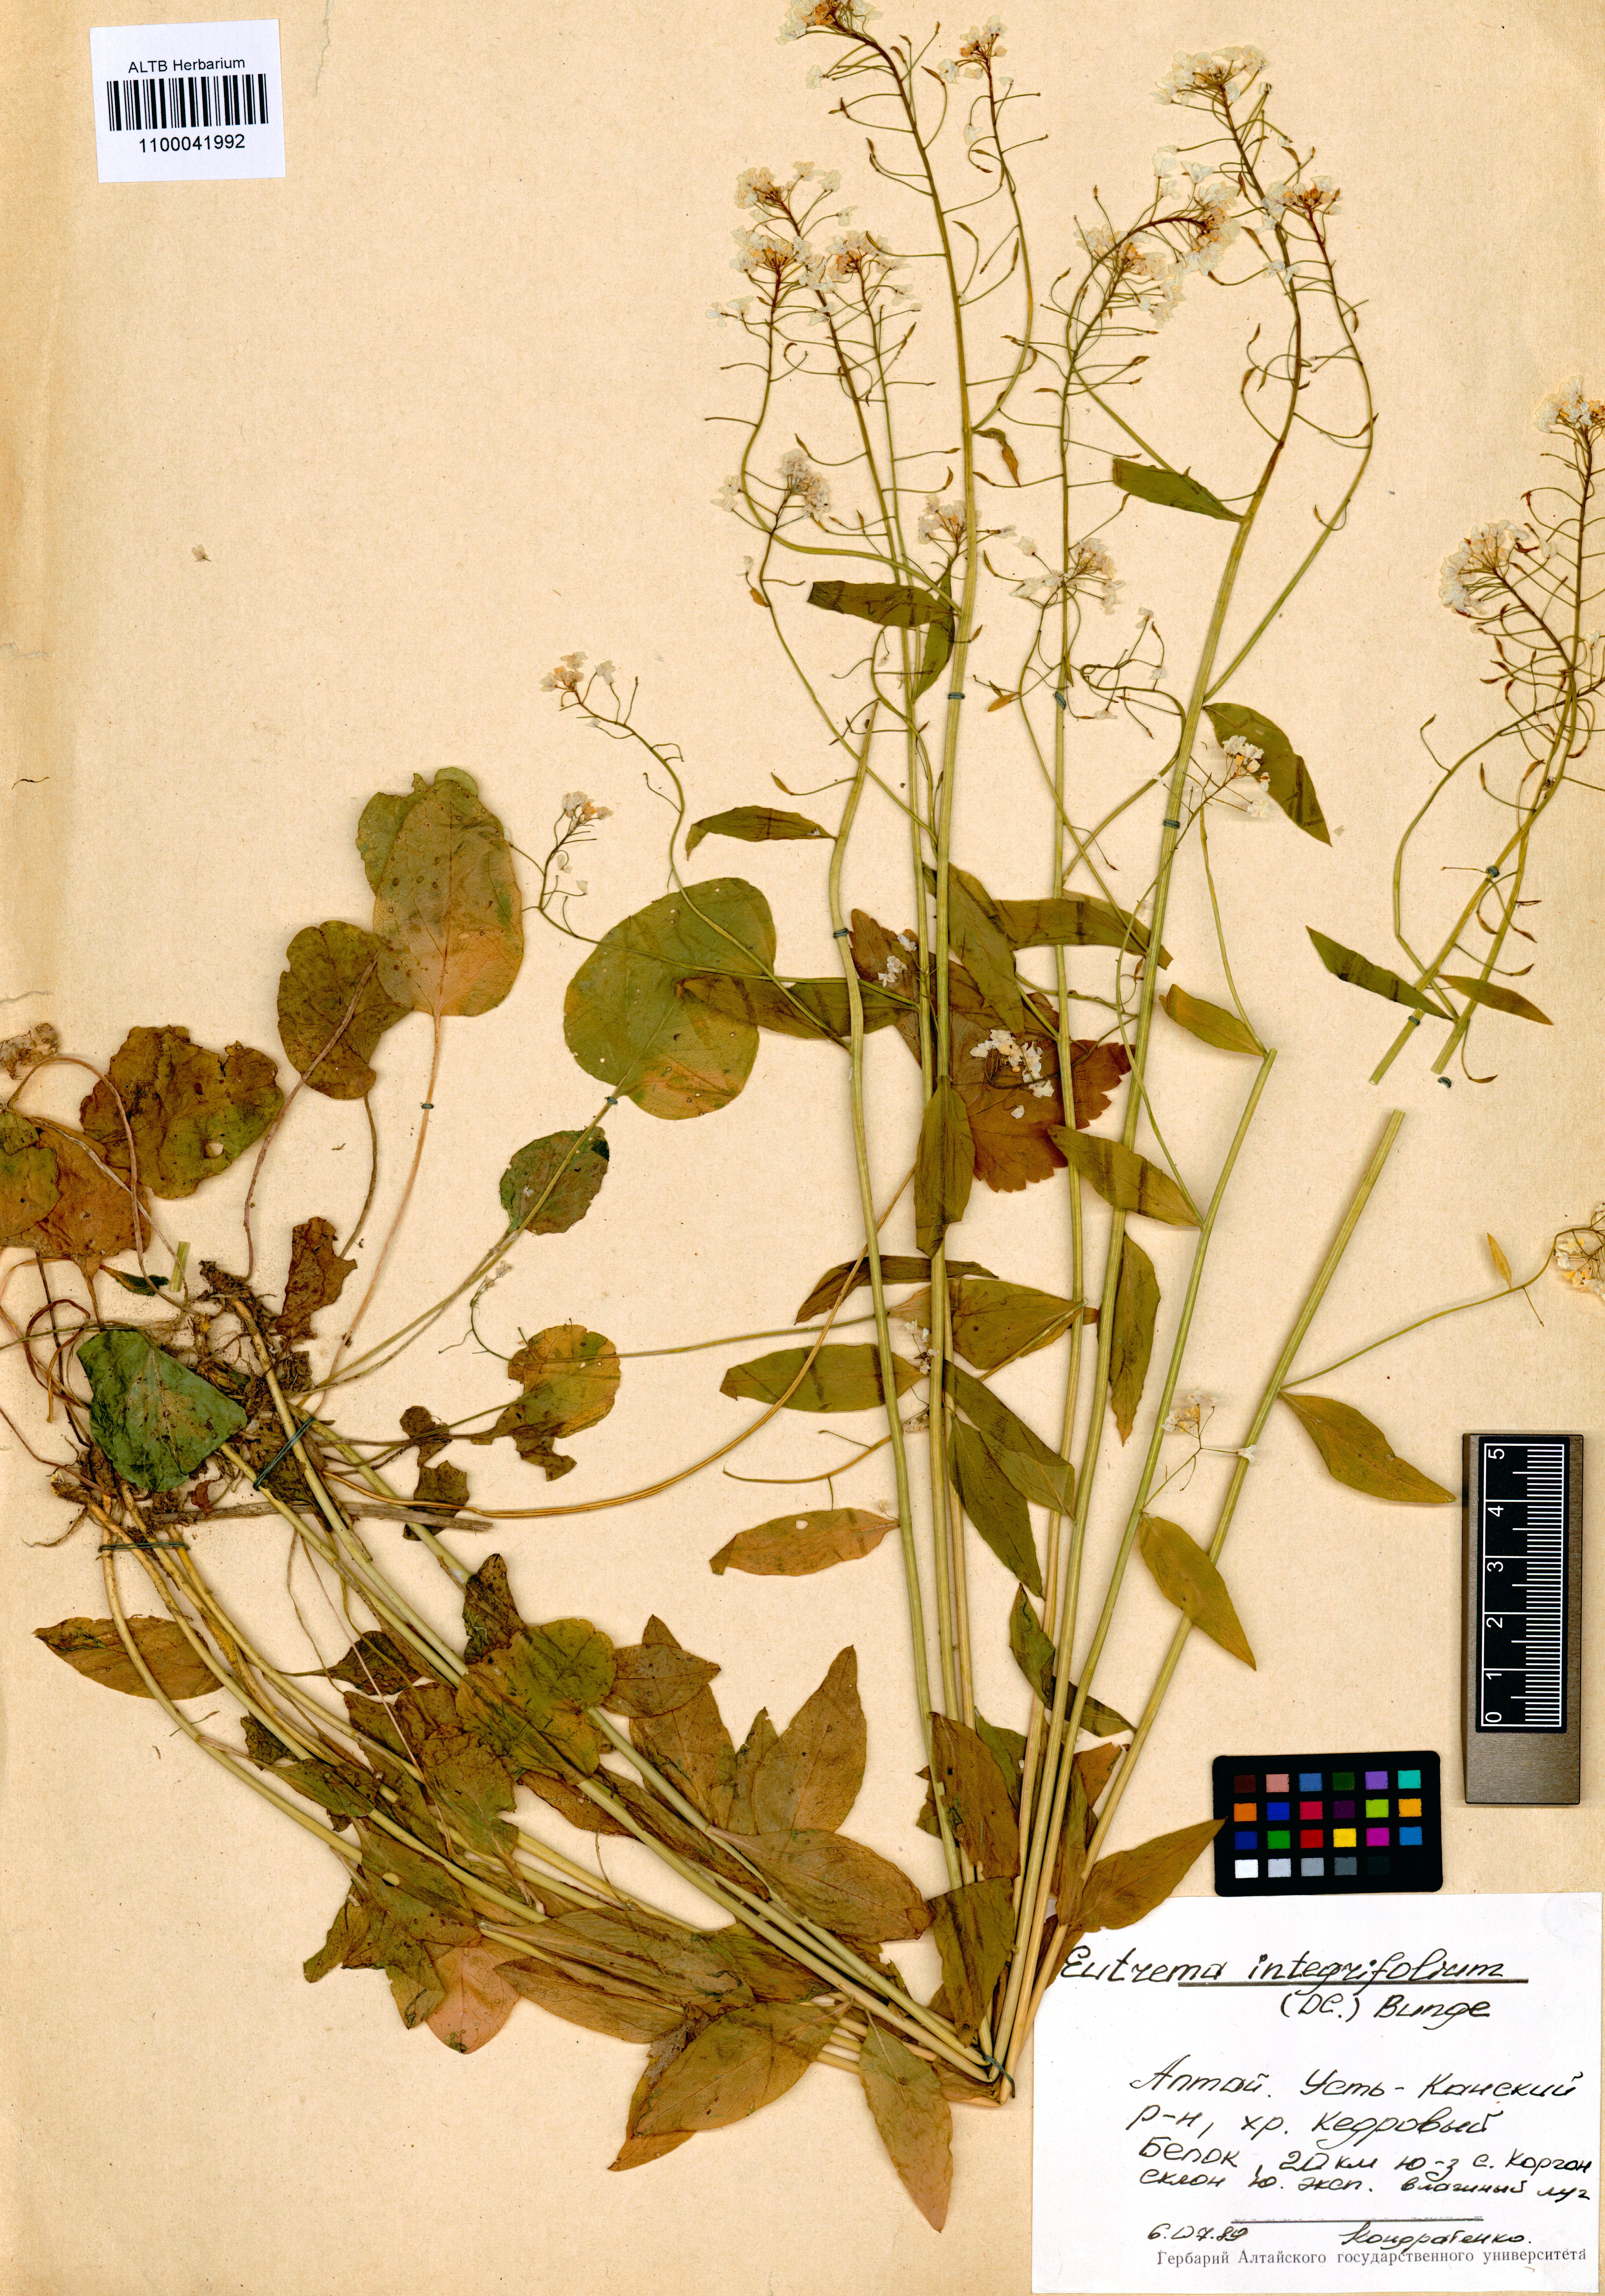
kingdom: Plantae
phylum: Tracheophyta
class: Magnoliopsida
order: Brassicales
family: Brassicaceae
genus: Eutrema
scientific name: Eutrema integrifolium
